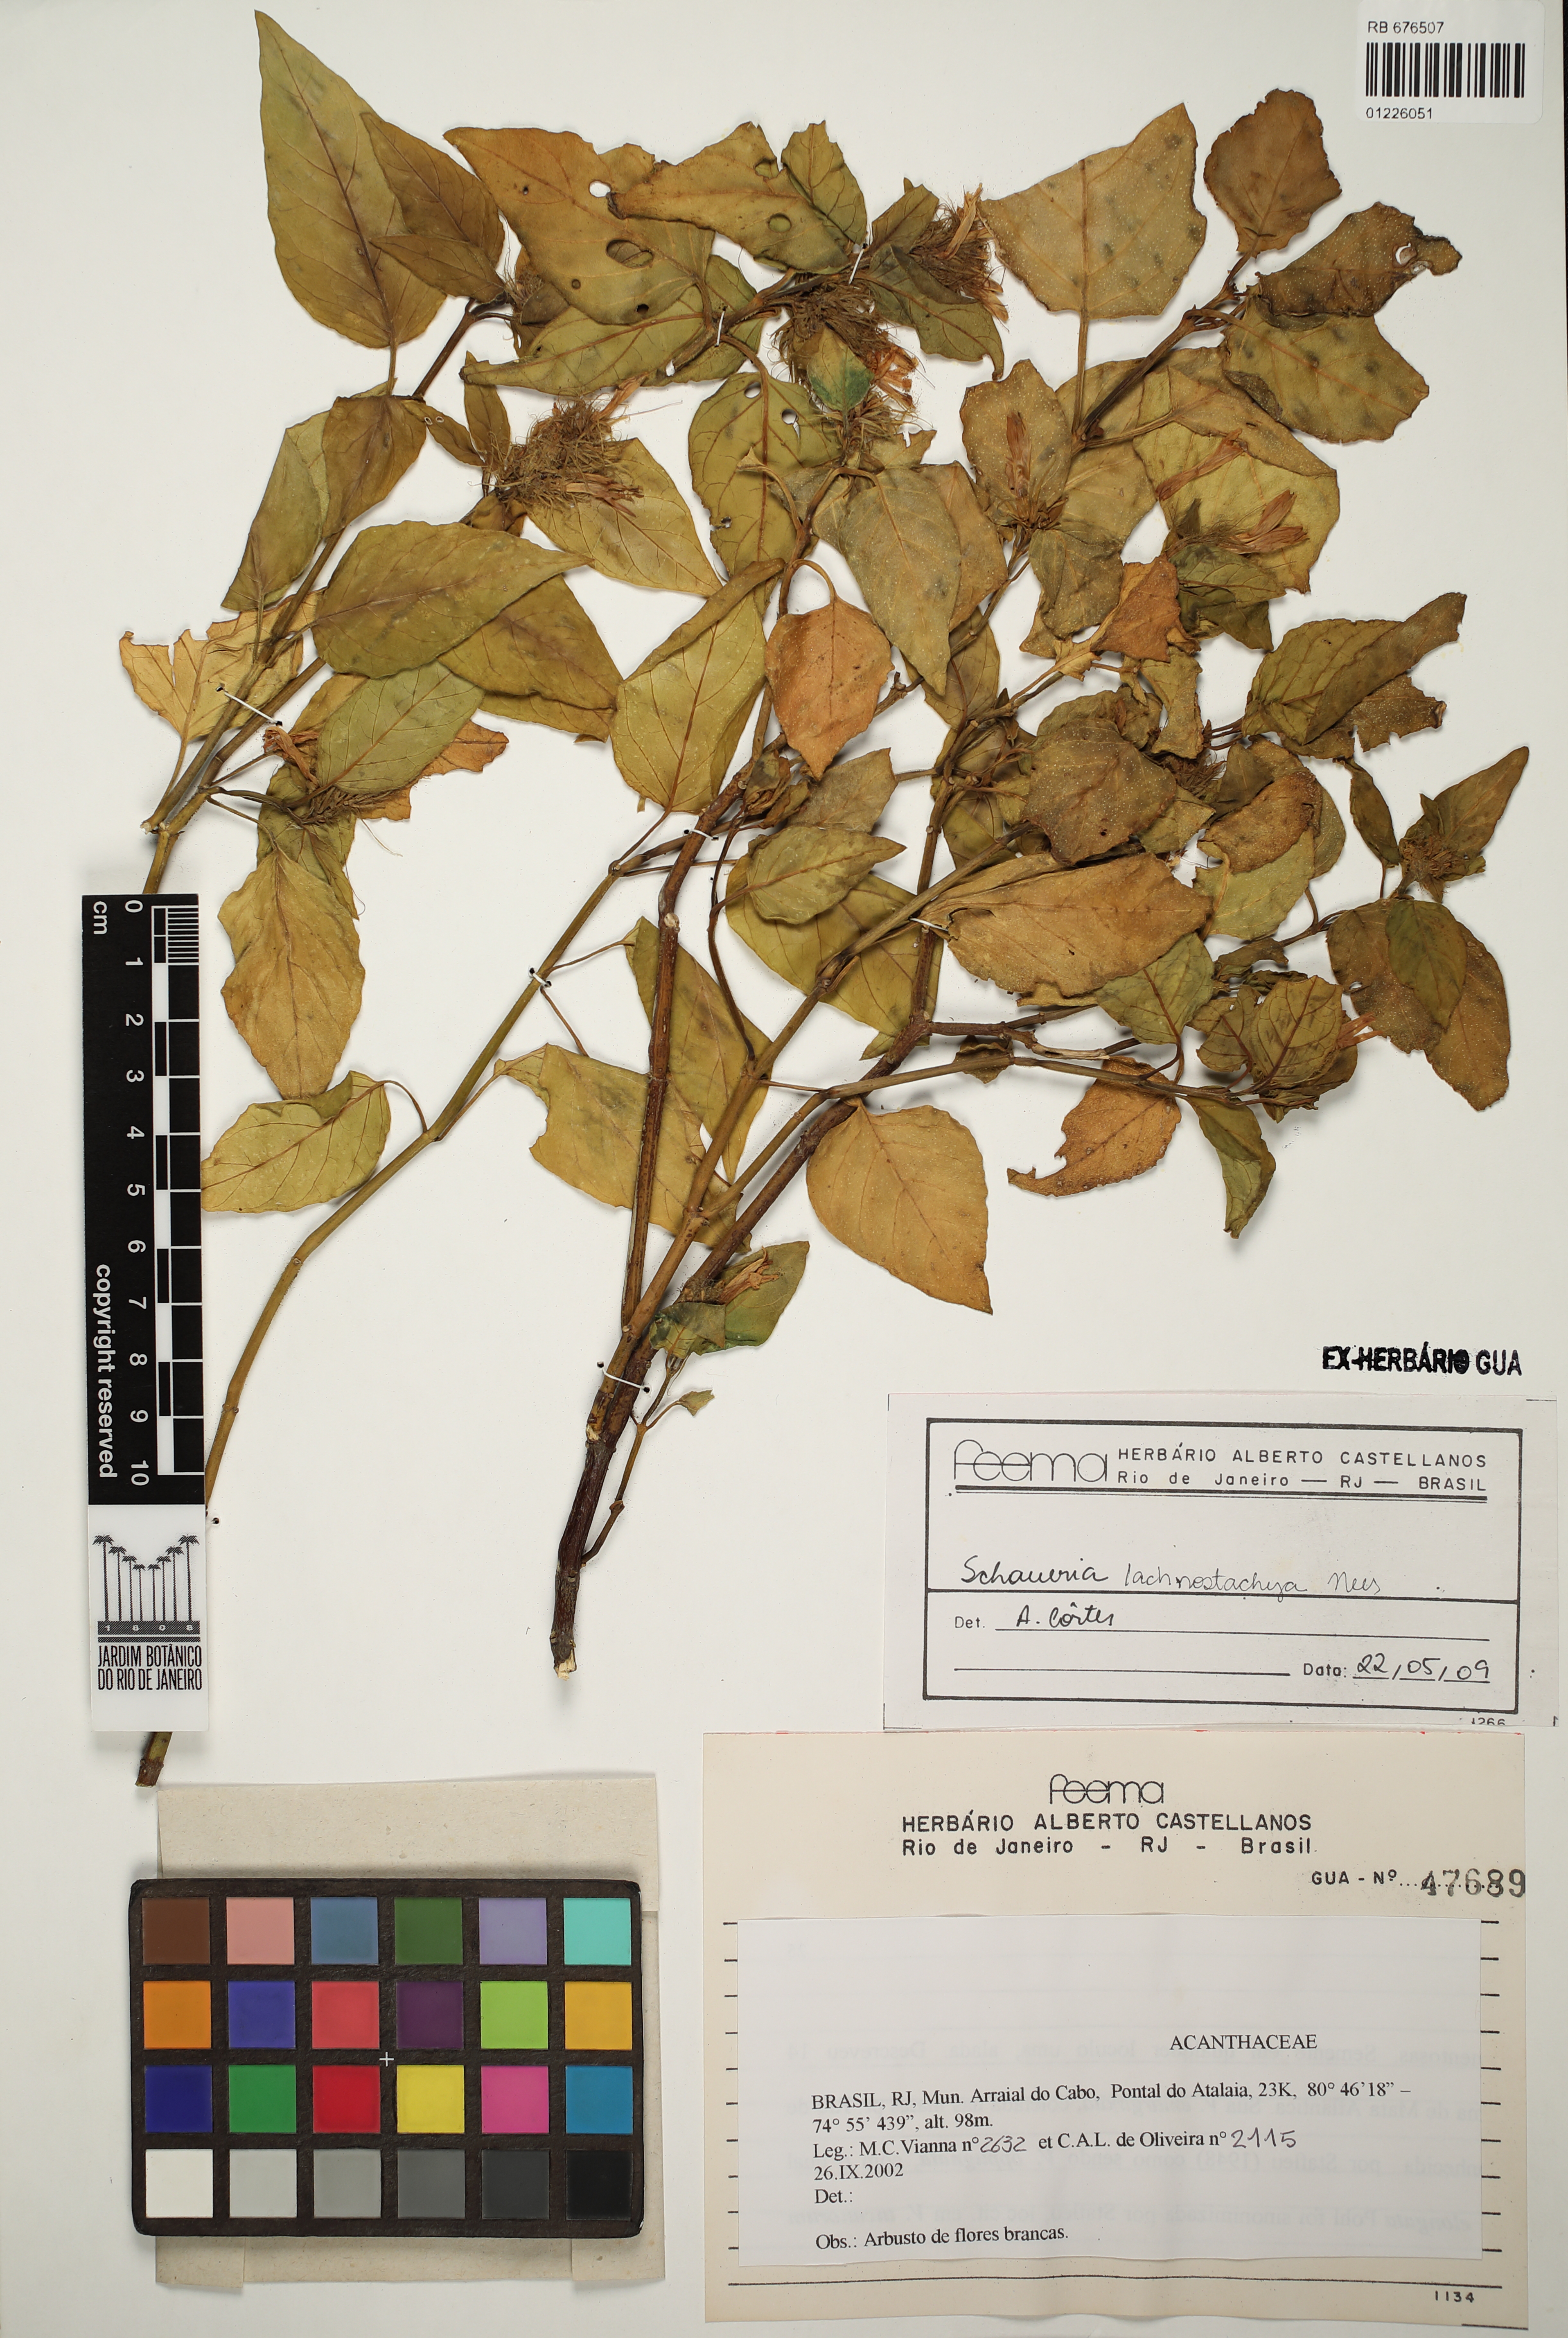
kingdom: Plantae
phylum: Tracheophyta
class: Magnoliopsida
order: Lamiales
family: Acanthaceae
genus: Schaueria
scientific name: Schaueria lachnostachya
